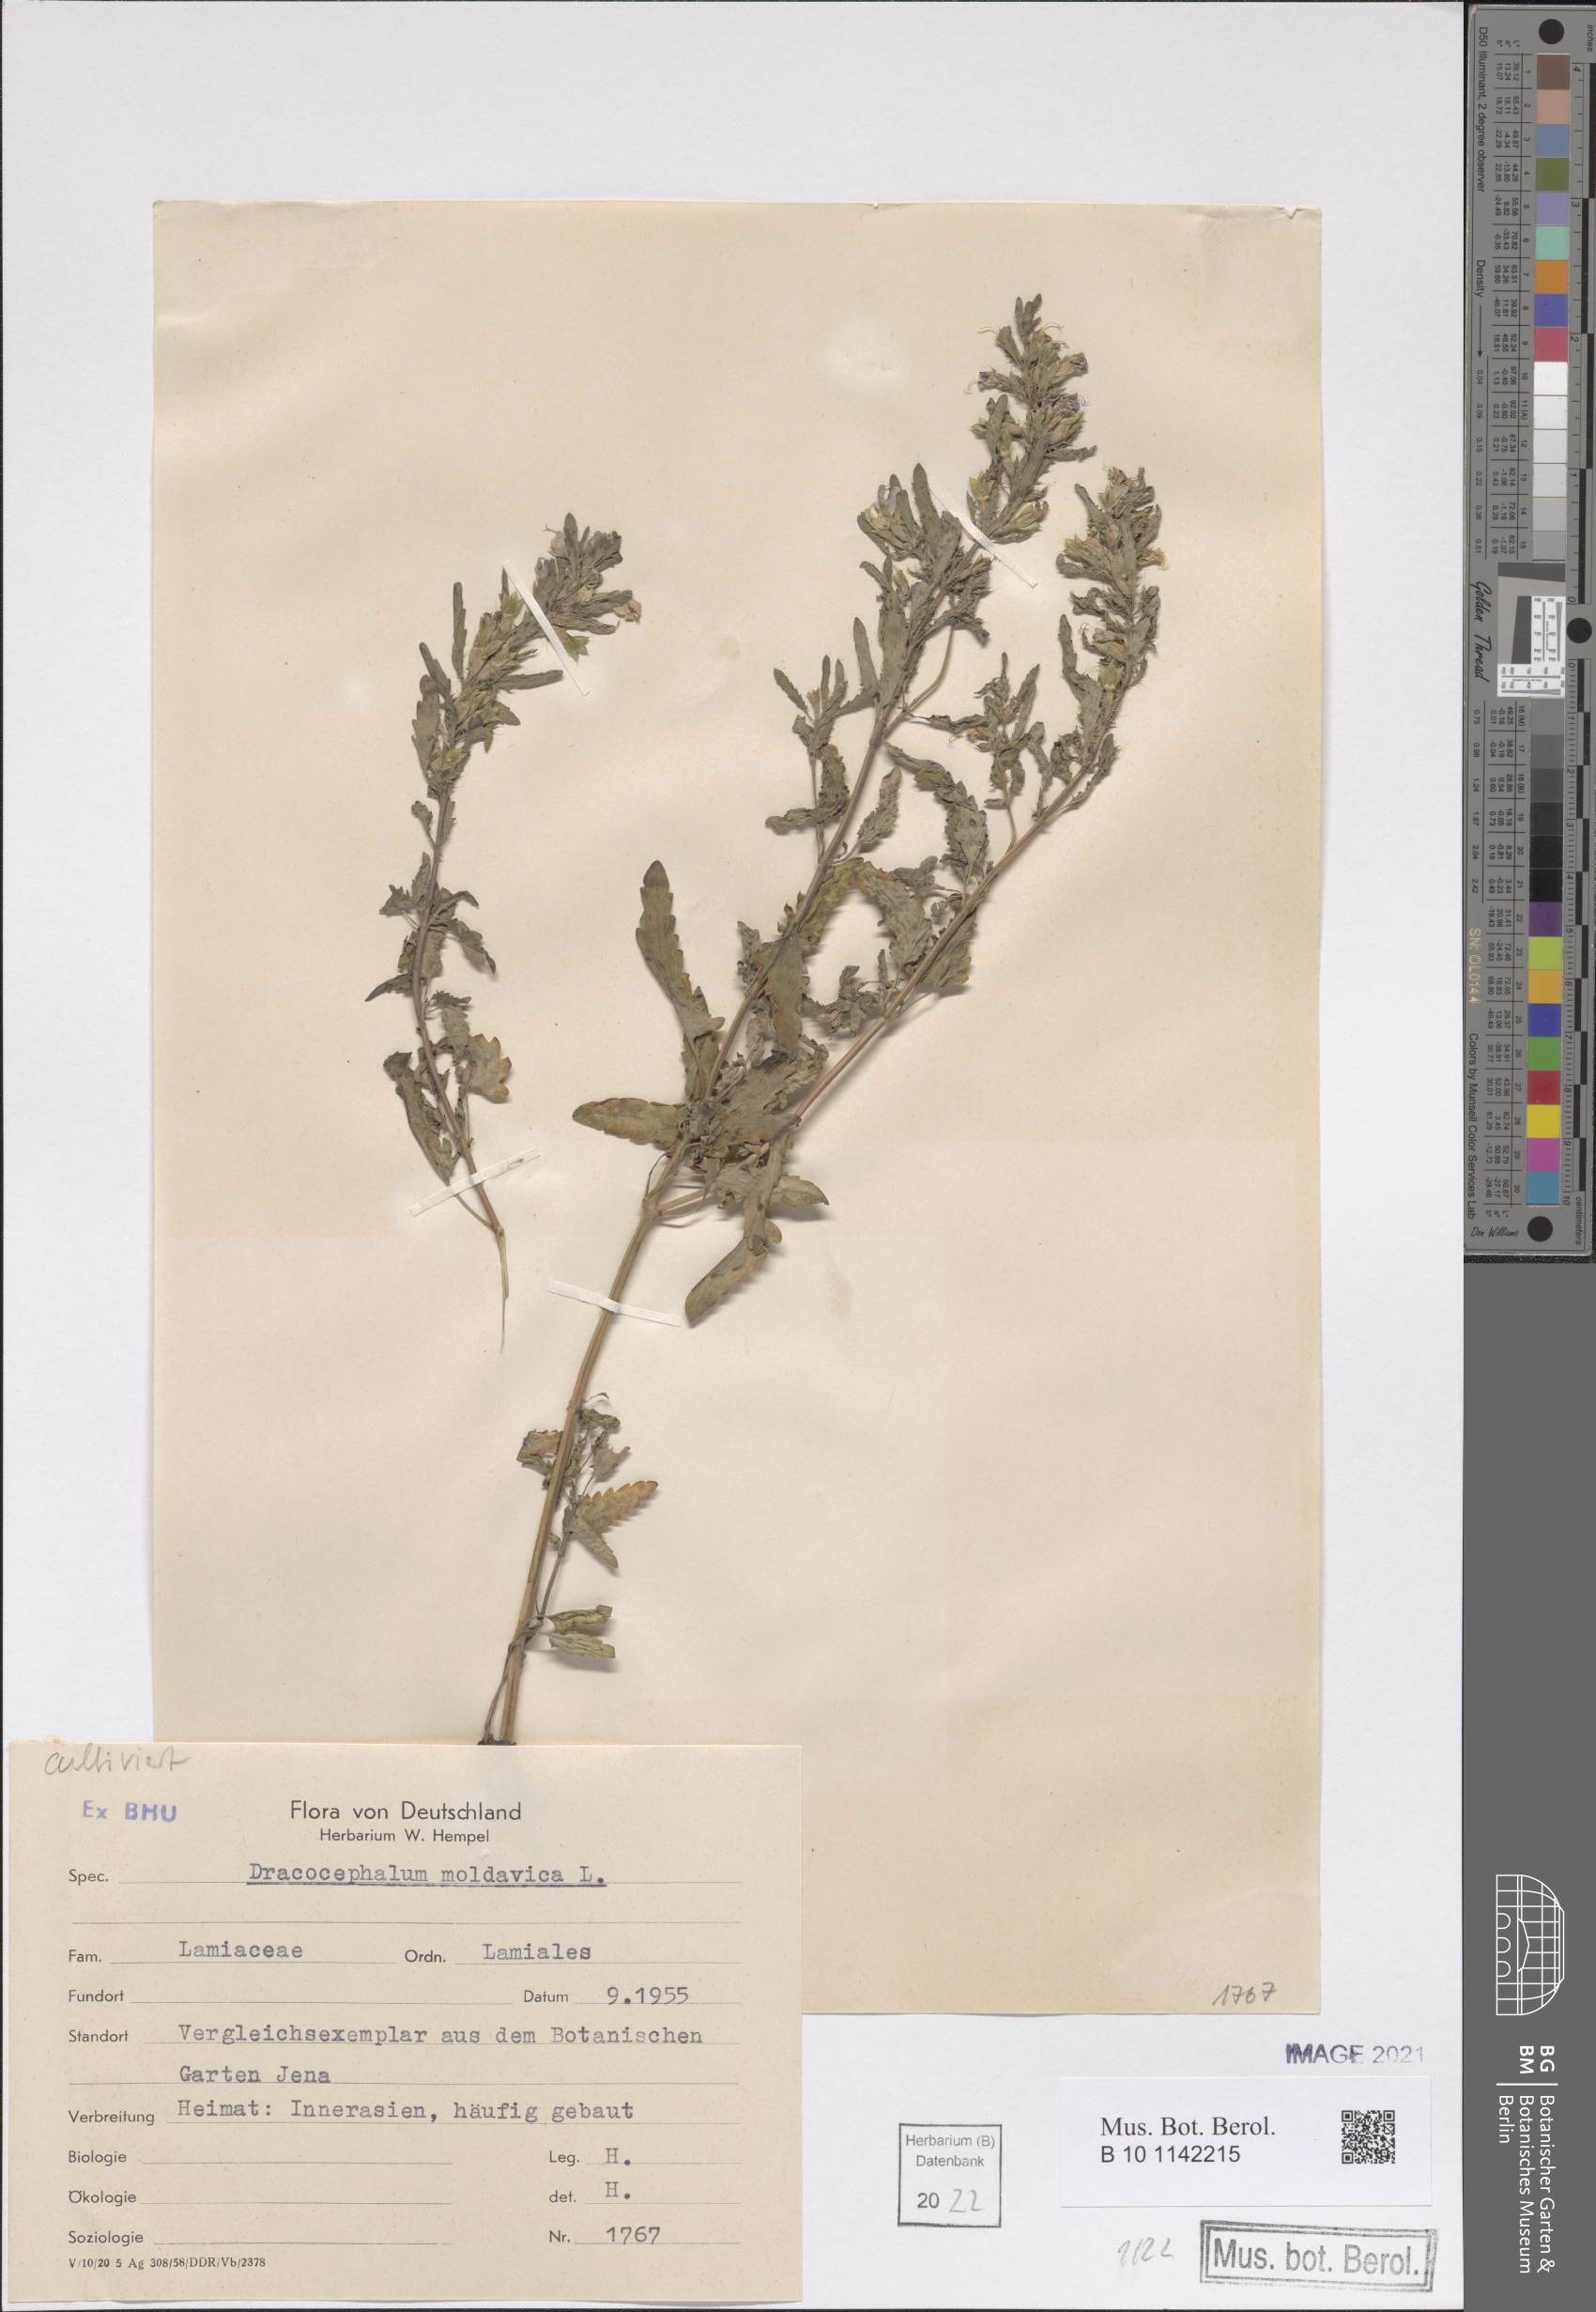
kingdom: Plantae
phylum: Tracheophyta
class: Magnoliopsida
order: Lamiales
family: Lamiaceae
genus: Dracocephalum
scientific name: Dracocephalum moldavica
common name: Moldavian dragonhead
